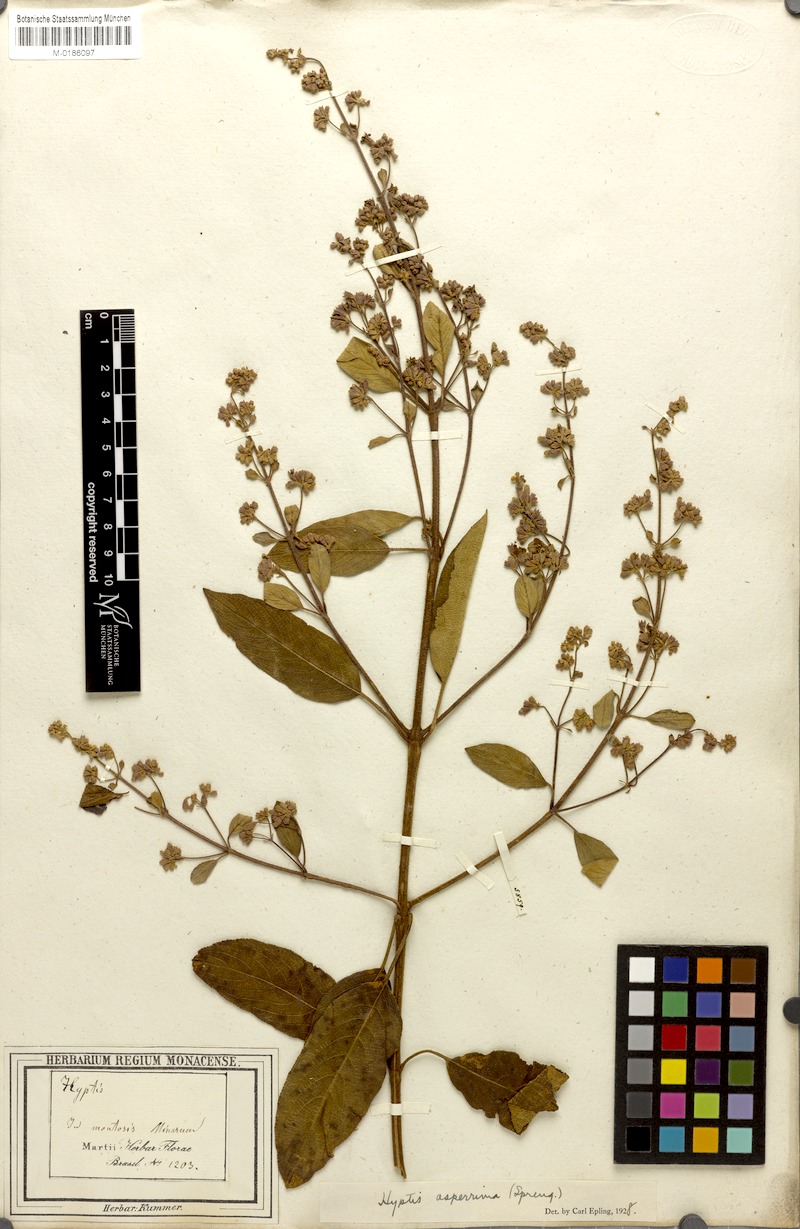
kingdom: Plantae
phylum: Tracheophyta
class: Magnoliopsida
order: Lamiales
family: Lamiaceae
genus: Hyptidendron
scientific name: Hyptidendron asperrimum
